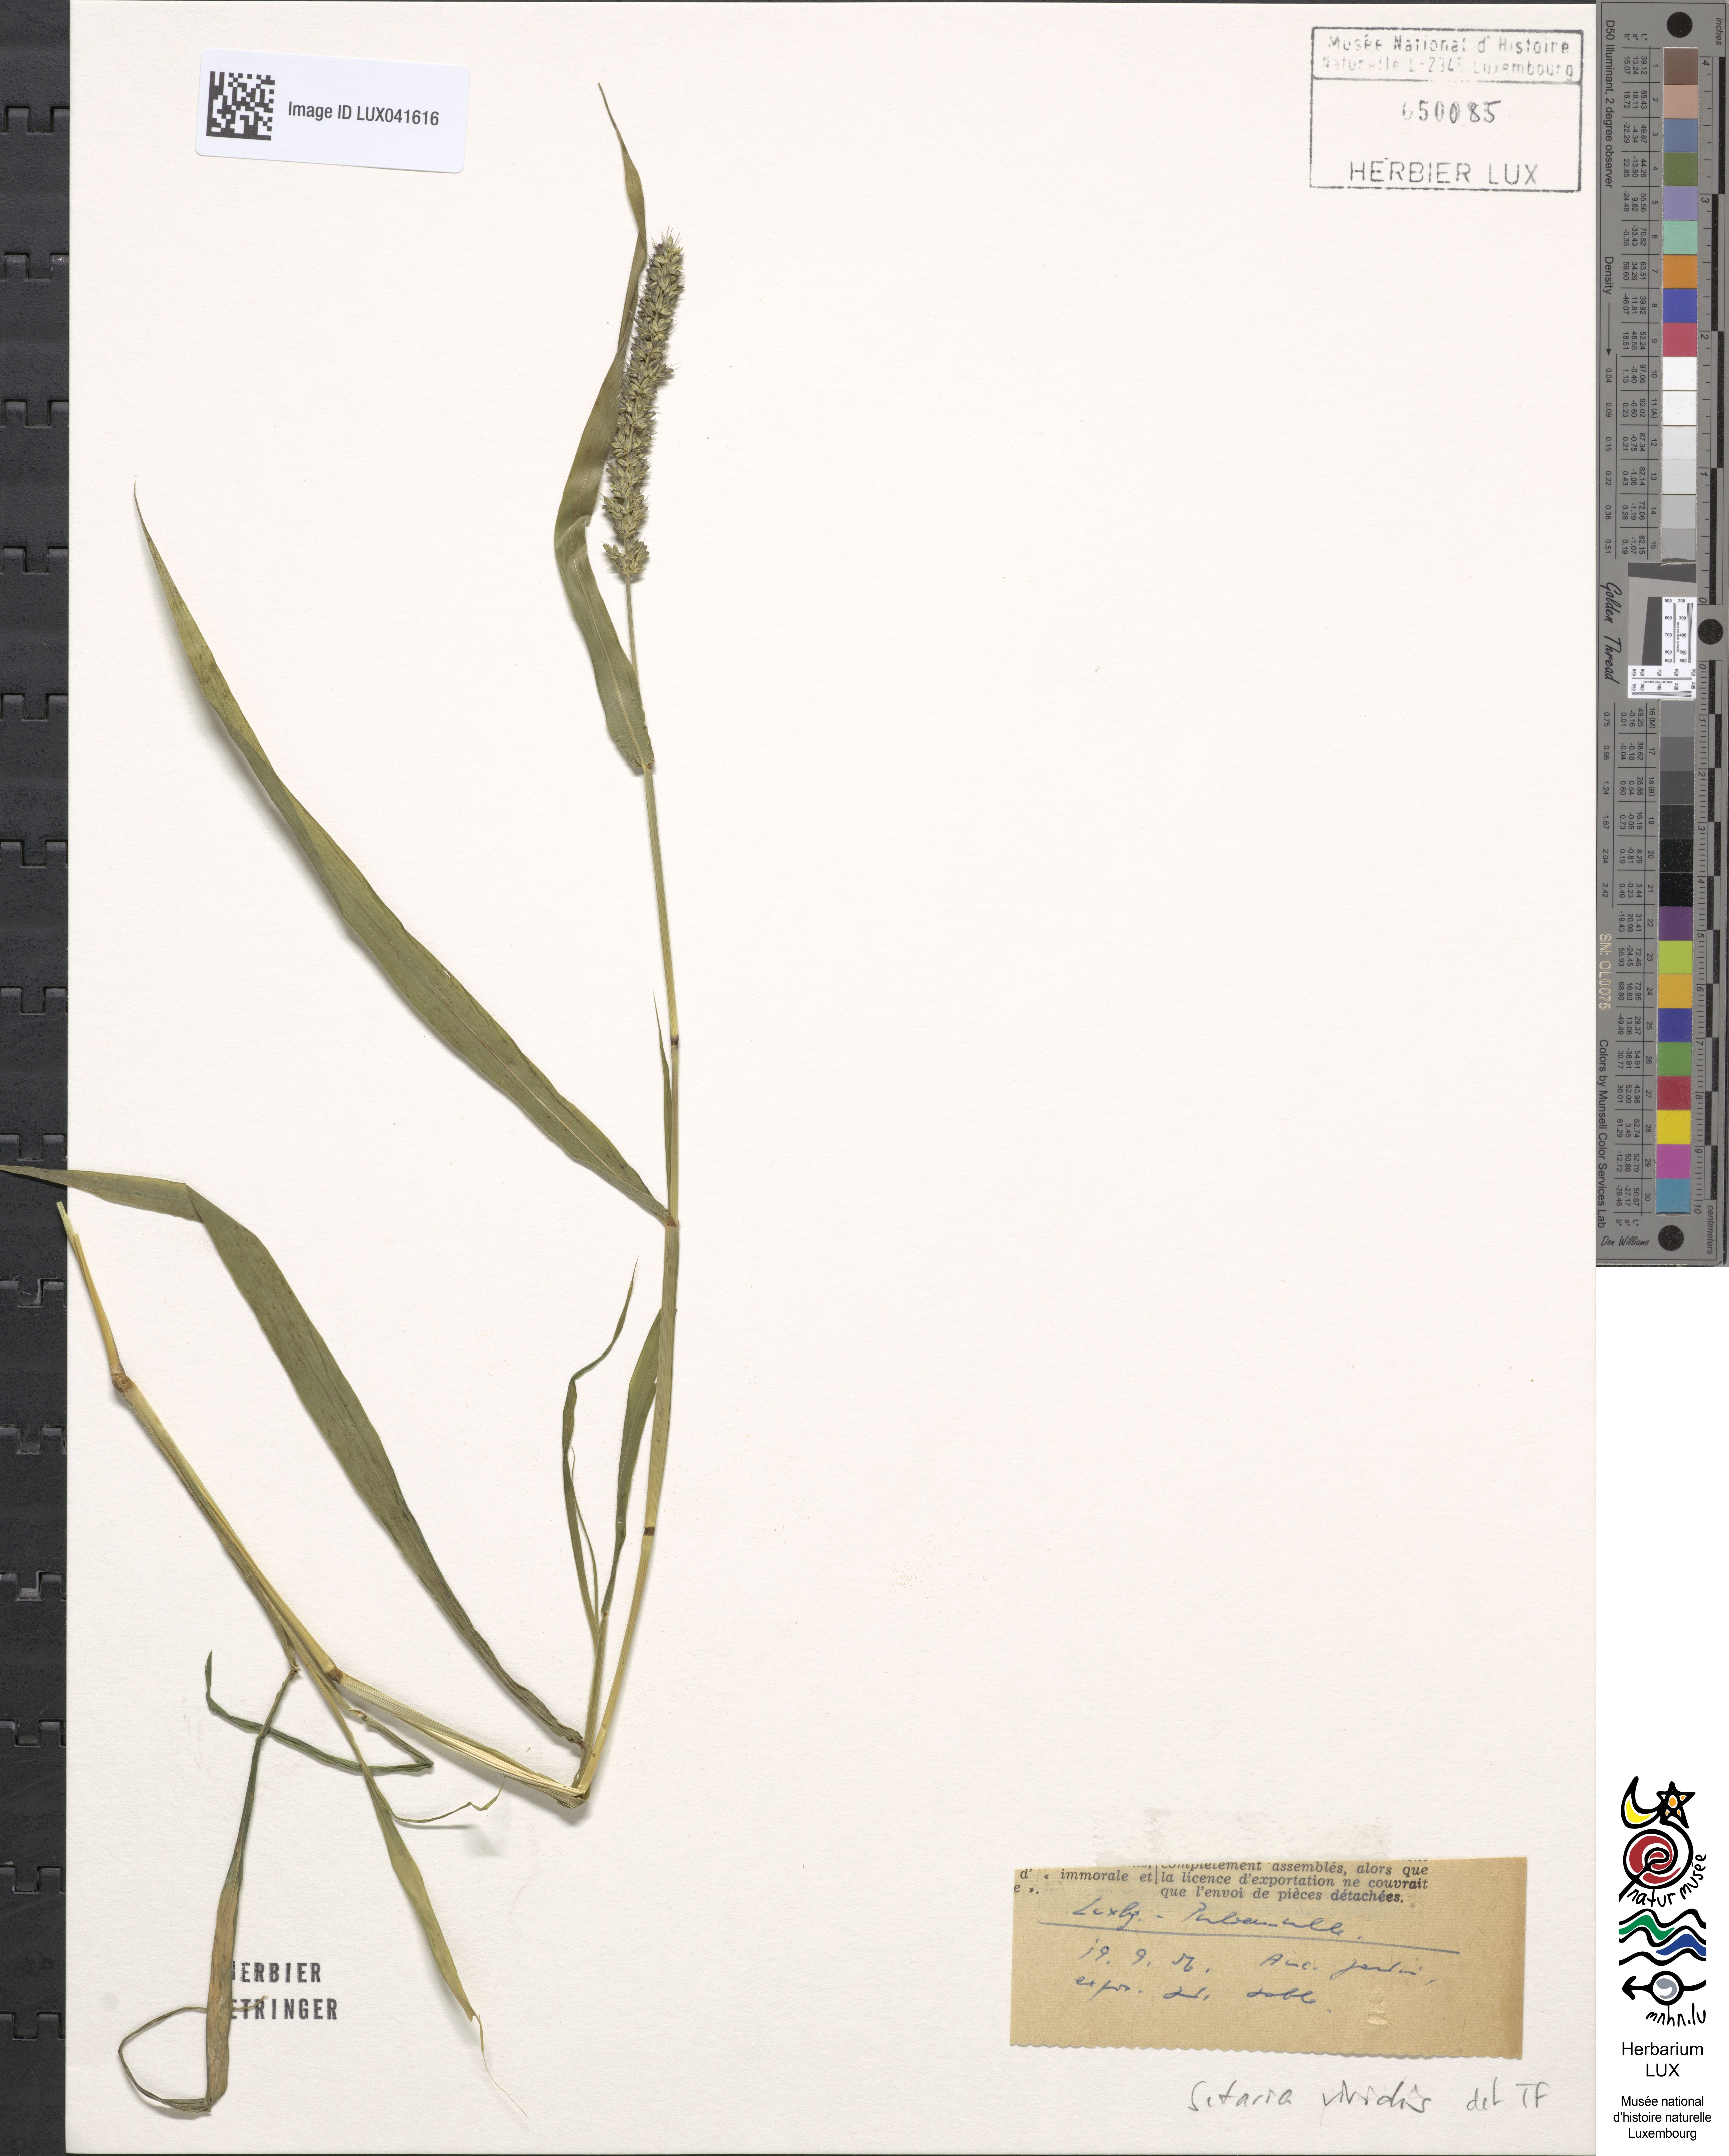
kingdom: Plantae
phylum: Tracheophyta
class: Liliopsida
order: Poales
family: Poaceae
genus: Setaria
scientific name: Setaria viridis
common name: Green bristlegrass
